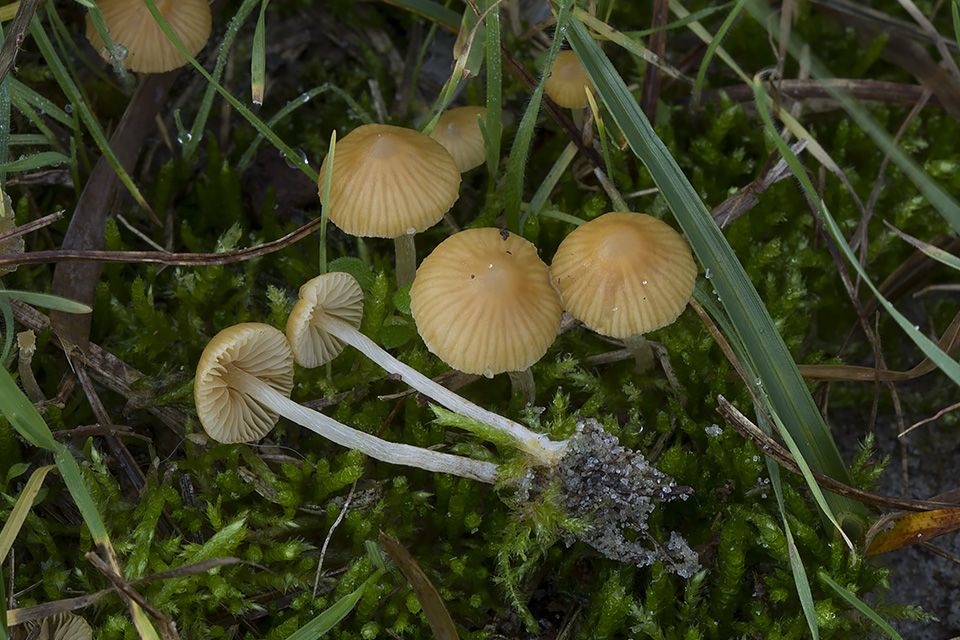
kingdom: Fungi
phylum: Basidiomycota
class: Agaricomycetes
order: Agaricales
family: Hymenogastraceae
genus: Galerina
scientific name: Galerina graminea
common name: plæne-hjelmhat
